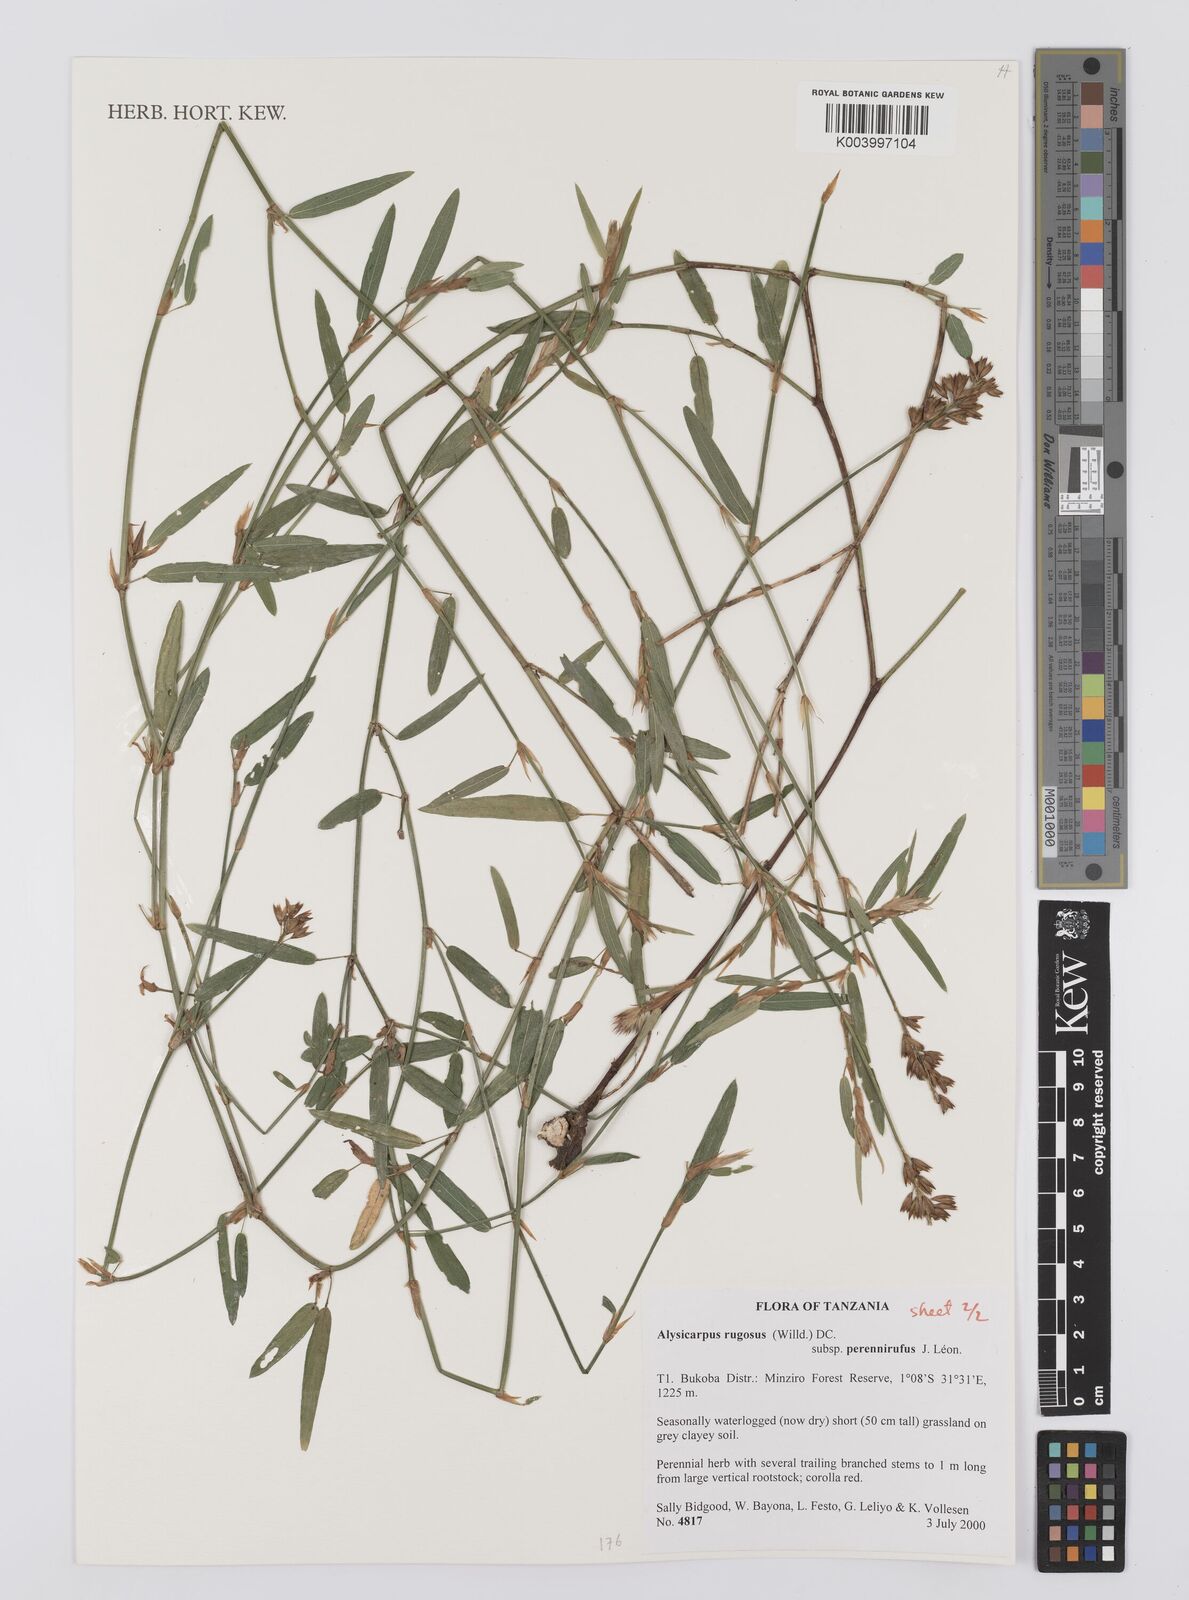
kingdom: Plantae
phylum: Tracheophyta
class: Magnoliopsida
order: Fabales
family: Fabaceae
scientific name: Fabaceae
